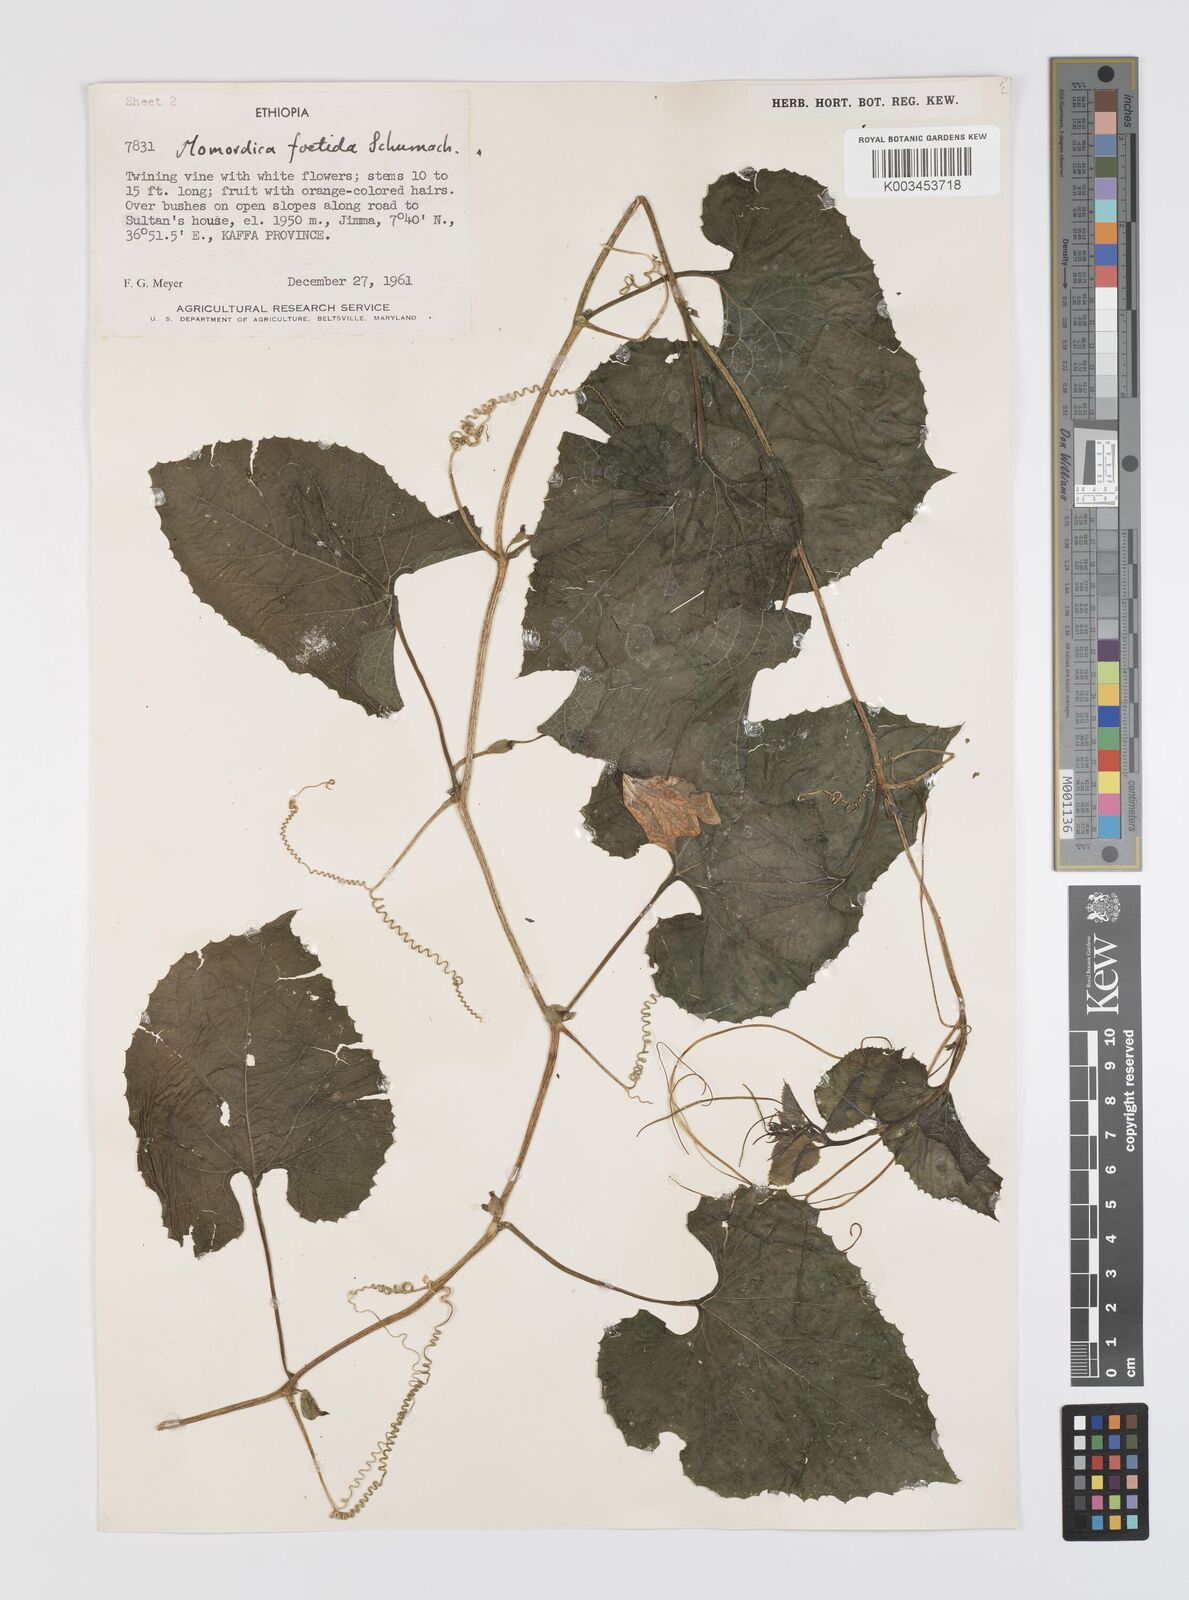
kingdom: Plantae
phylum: Tracheophyta
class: Magnoliopsida
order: Cucurbitales
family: Cucurbitaceae
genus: Momordica
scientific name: Momordica foetida
